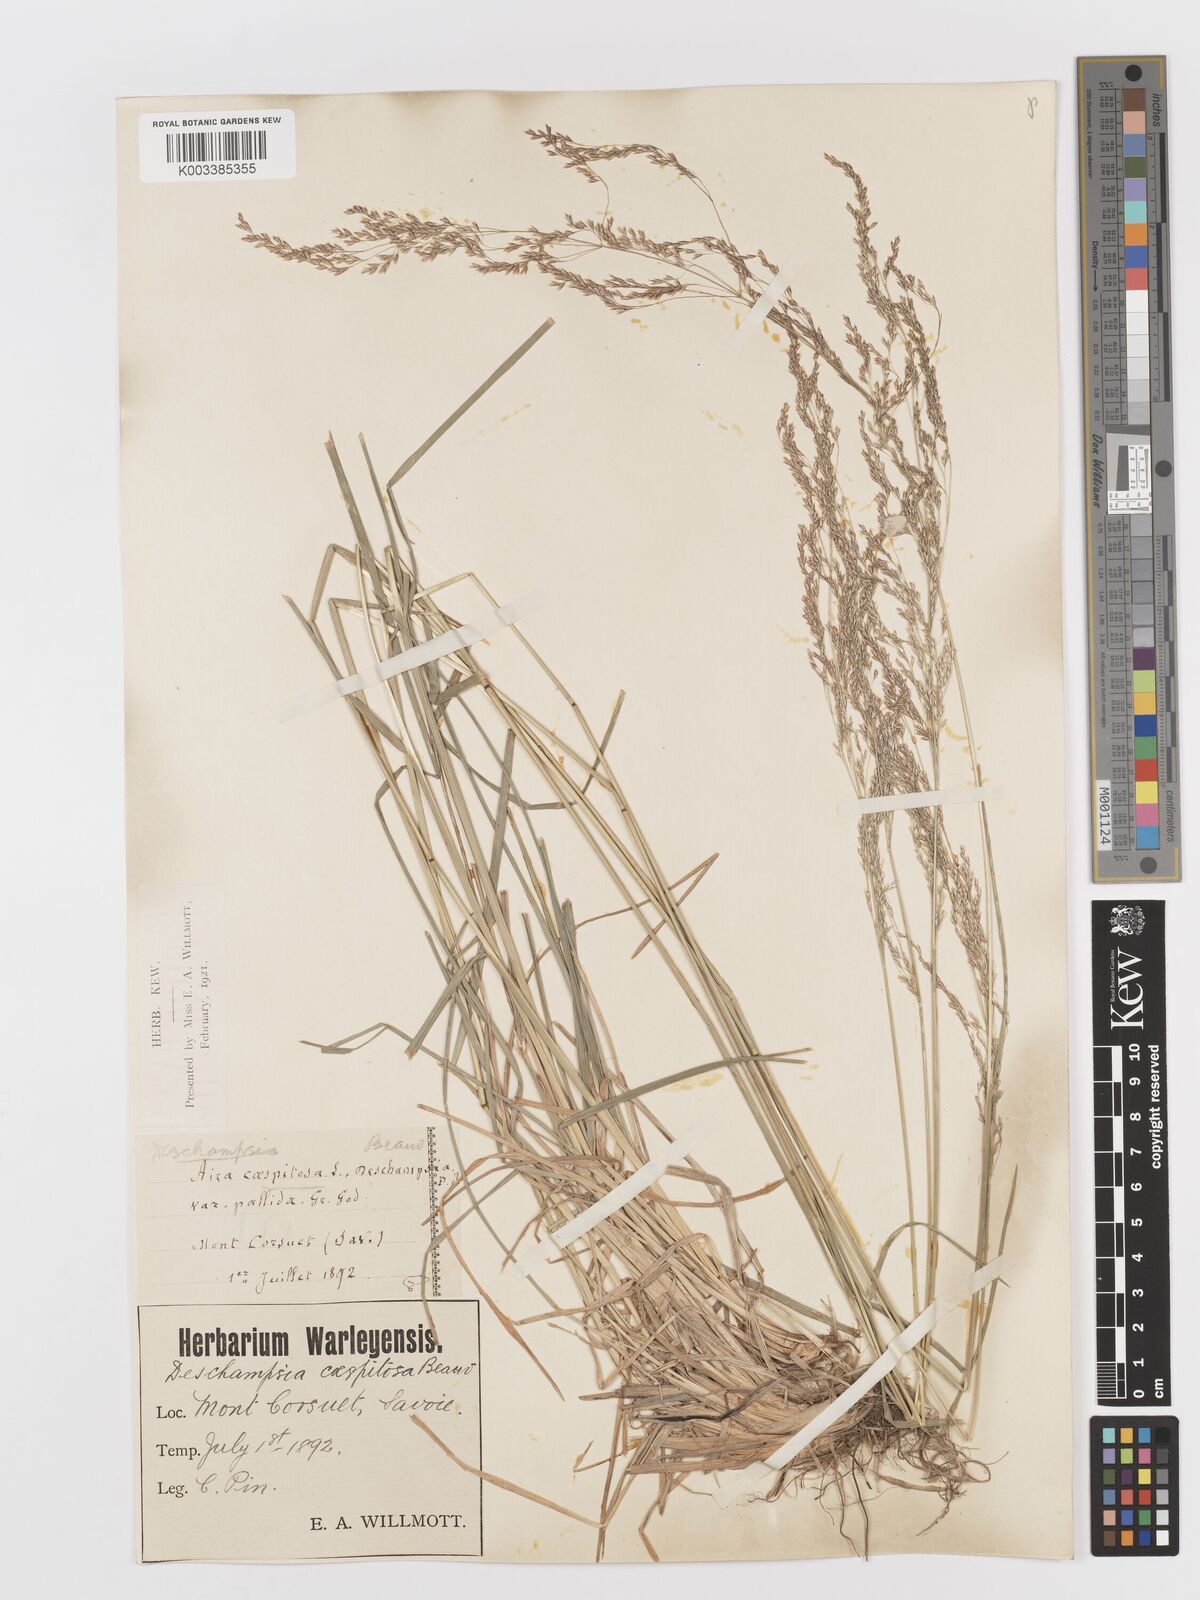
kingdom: Plantae
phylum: Tracheophyta
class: Liliopsida
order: Poales
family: Poaceae
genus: Deschampsia
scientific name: Deschampsia cespitosa
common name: Tufted hair-grass
